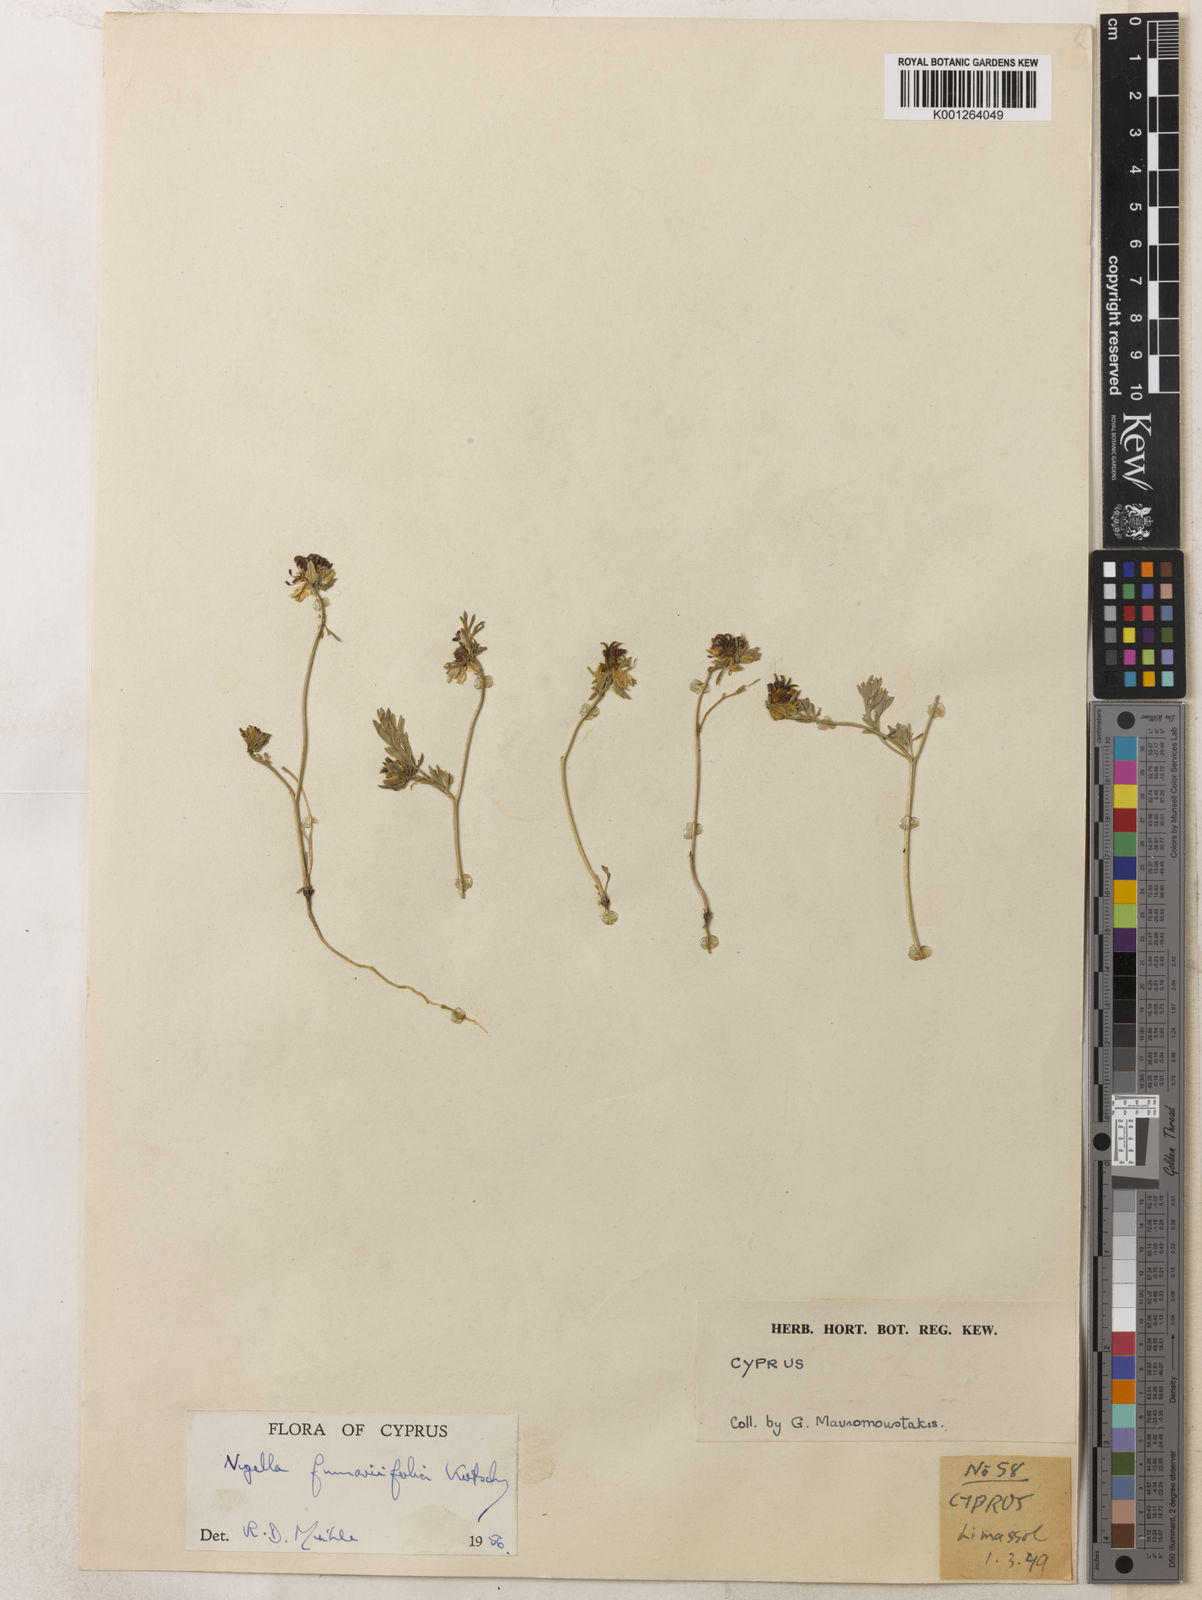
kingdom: Plantae
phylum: Tracheophyta
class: Magnoliopsida
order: Ranunculales
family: Ranunculaceae
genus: Nigella
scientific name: Nigella
